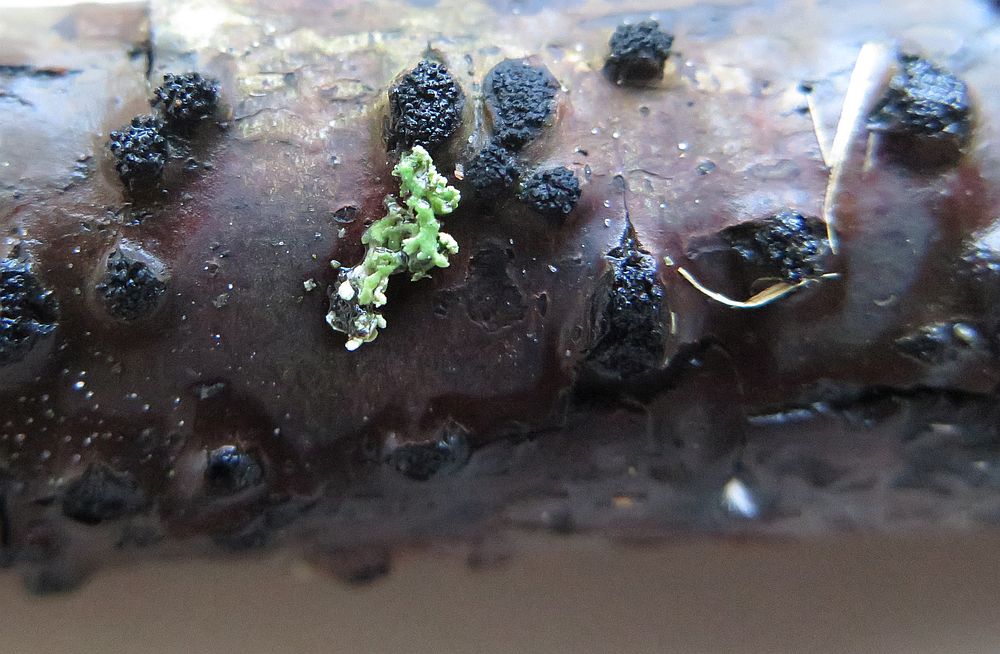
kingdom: Fungi
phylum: Ascomycota
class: Sordariomycetes
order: Xylariales
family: Diatrypaceae
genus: Eutypella
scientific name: Eutypella prunastri
